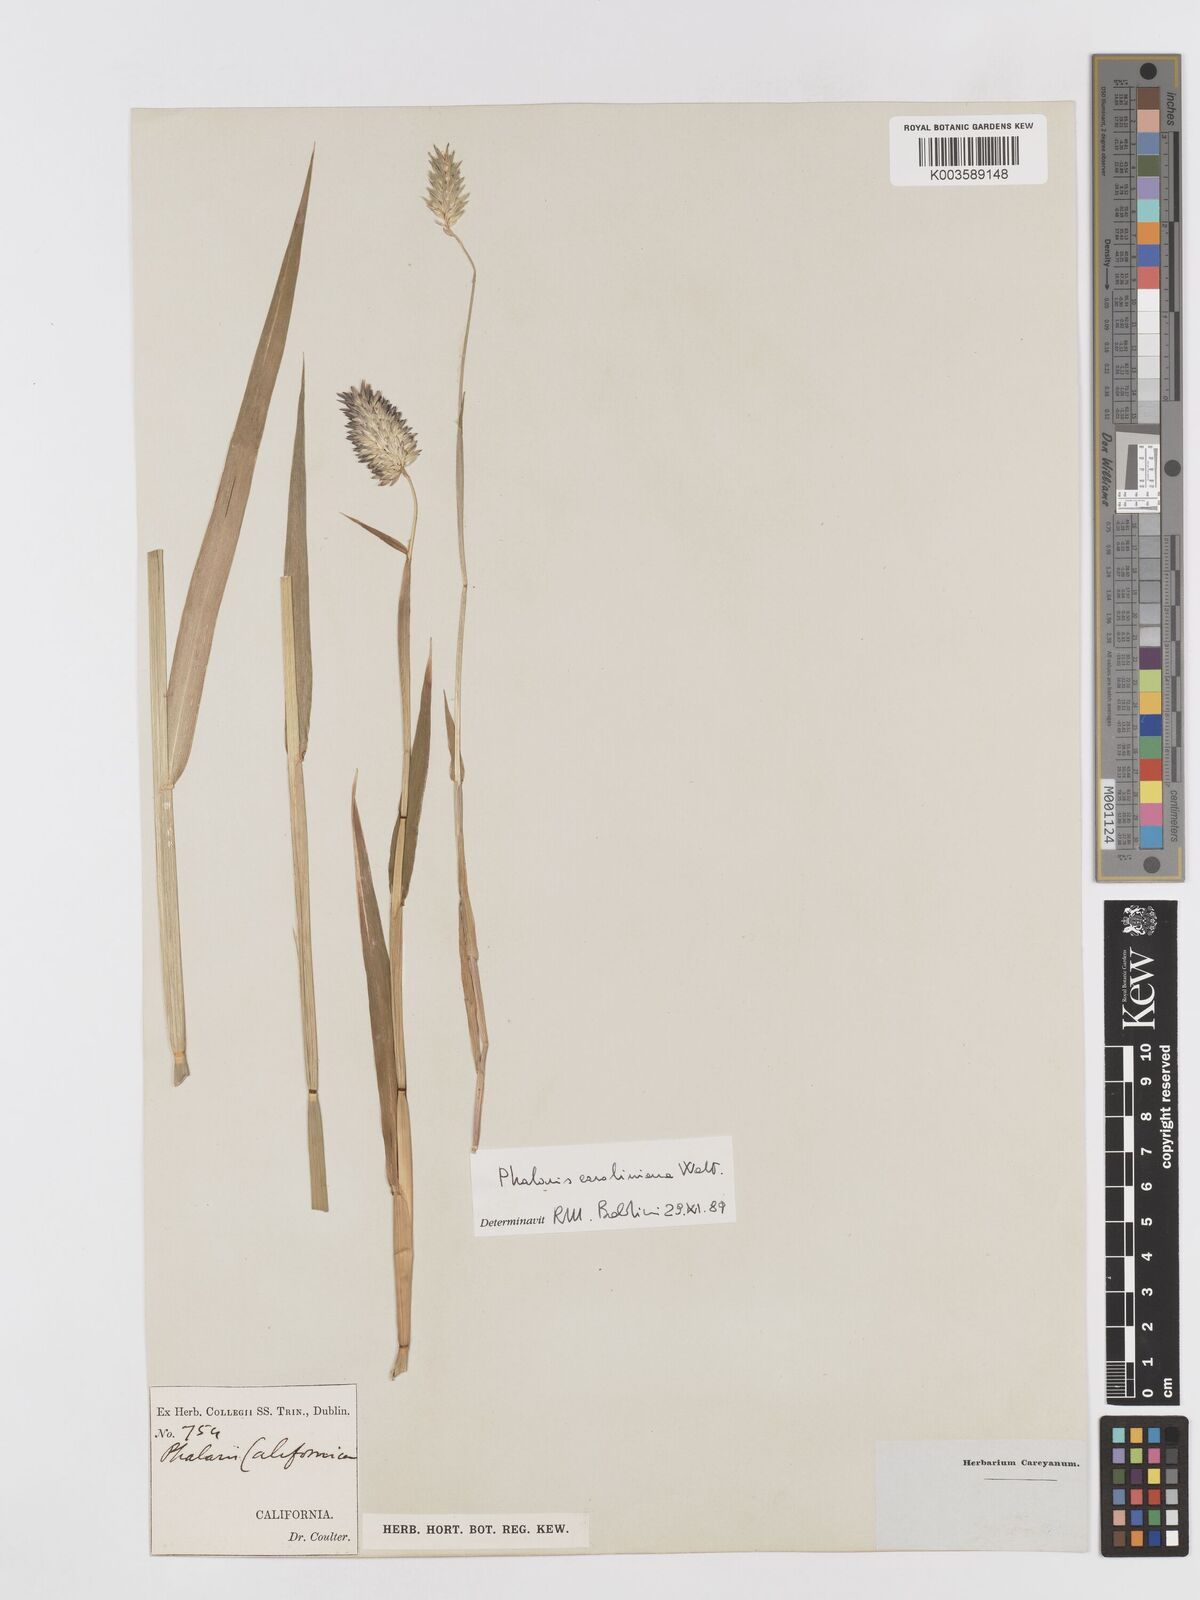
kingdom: Plantae
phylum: Tracheophyta
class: Liliopsida
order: Poales
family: Poaceae
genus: Phalaris
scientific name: Phalaris caroliniana
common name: May grass
